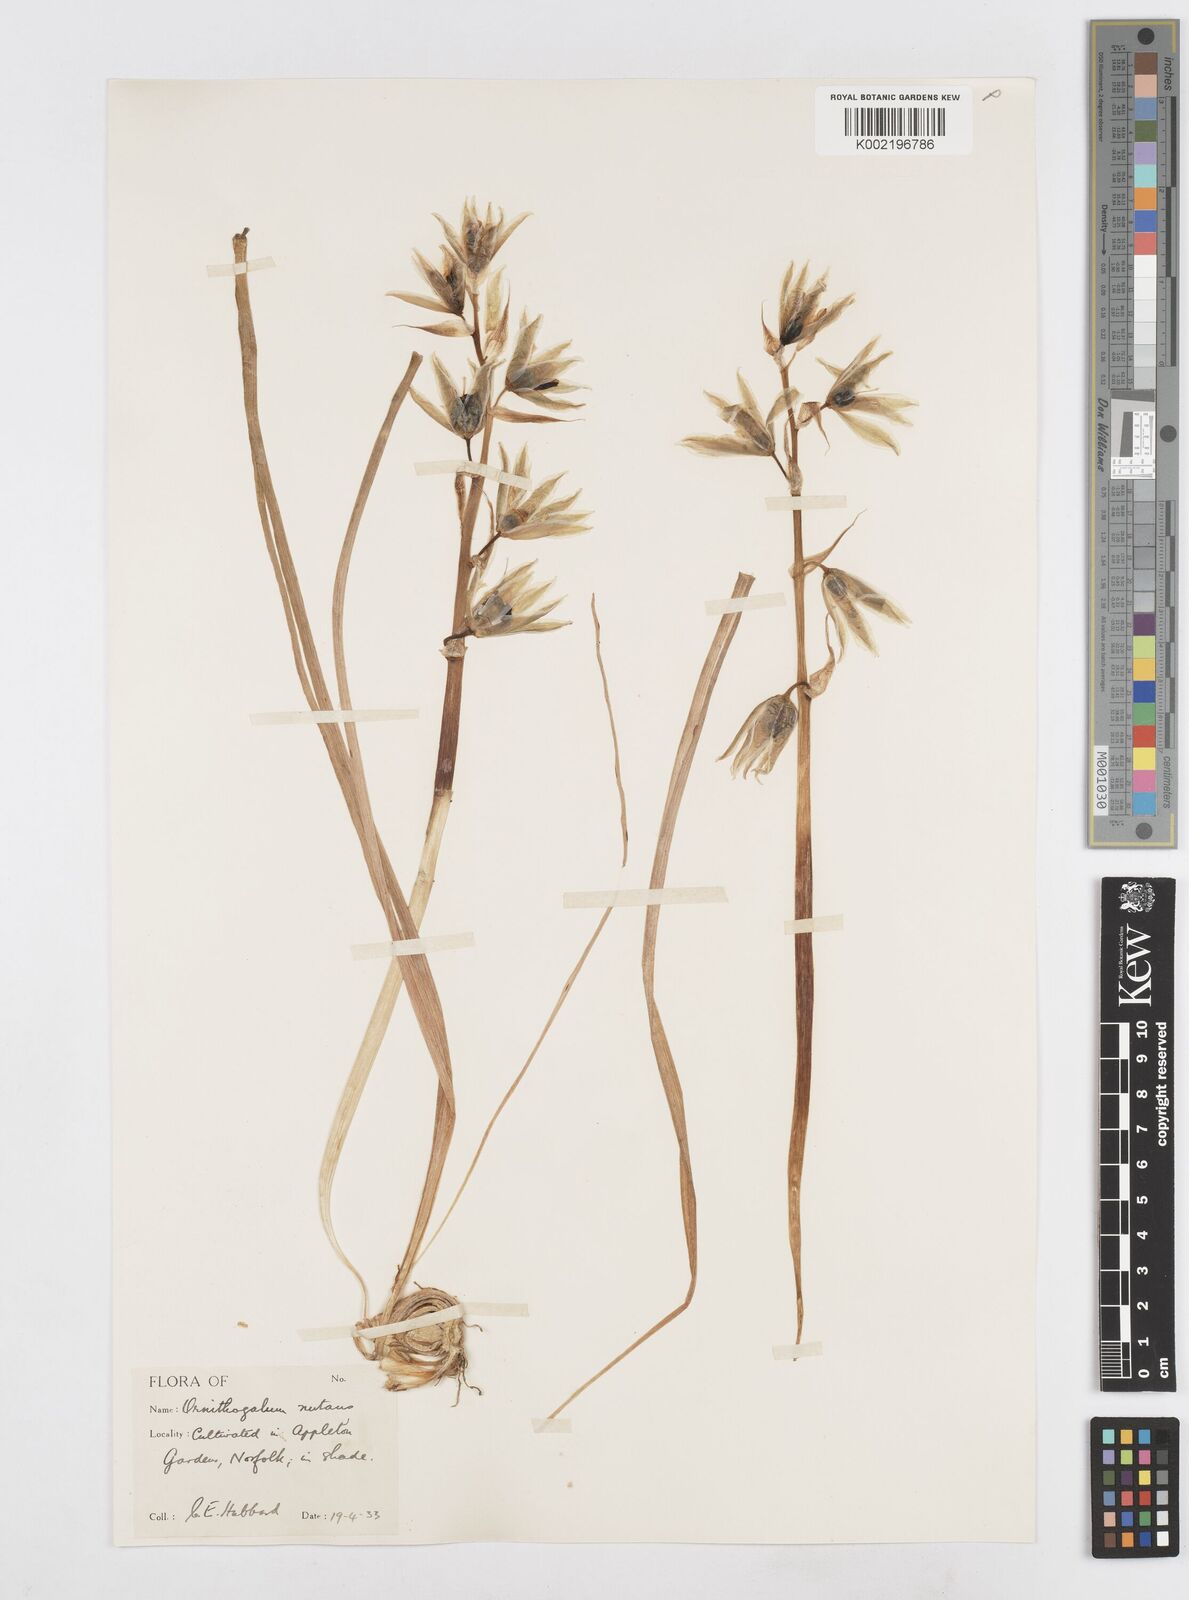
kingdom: Plantae
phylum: Tracheophyta
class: Liliopsida
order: Asparagales
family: Asparagaceae
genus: Ornithogalum
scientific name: Ornithogalum nutans
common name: Drooping star-of-bethlehem
